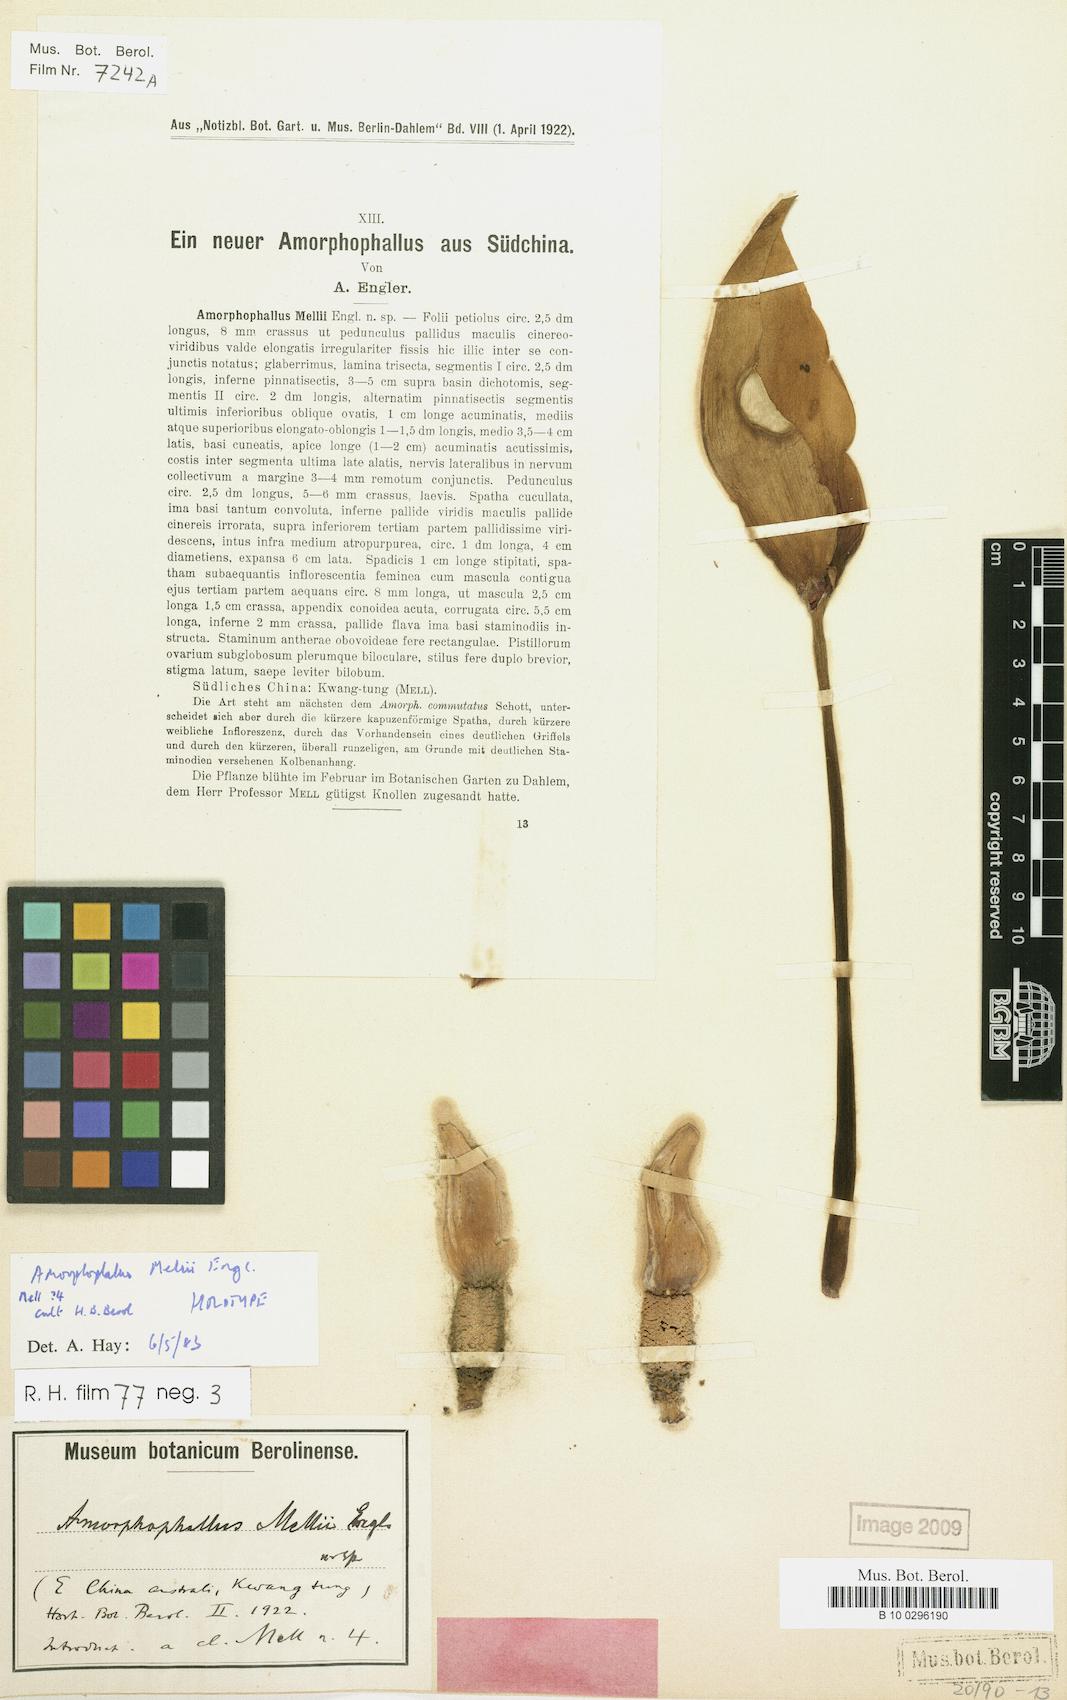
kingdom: Plantae
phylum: Tracheophyta
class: Liliopsida
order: Alismatales
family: Araceae
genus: Amorphophallus
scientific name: Amorphophallus dunnii
